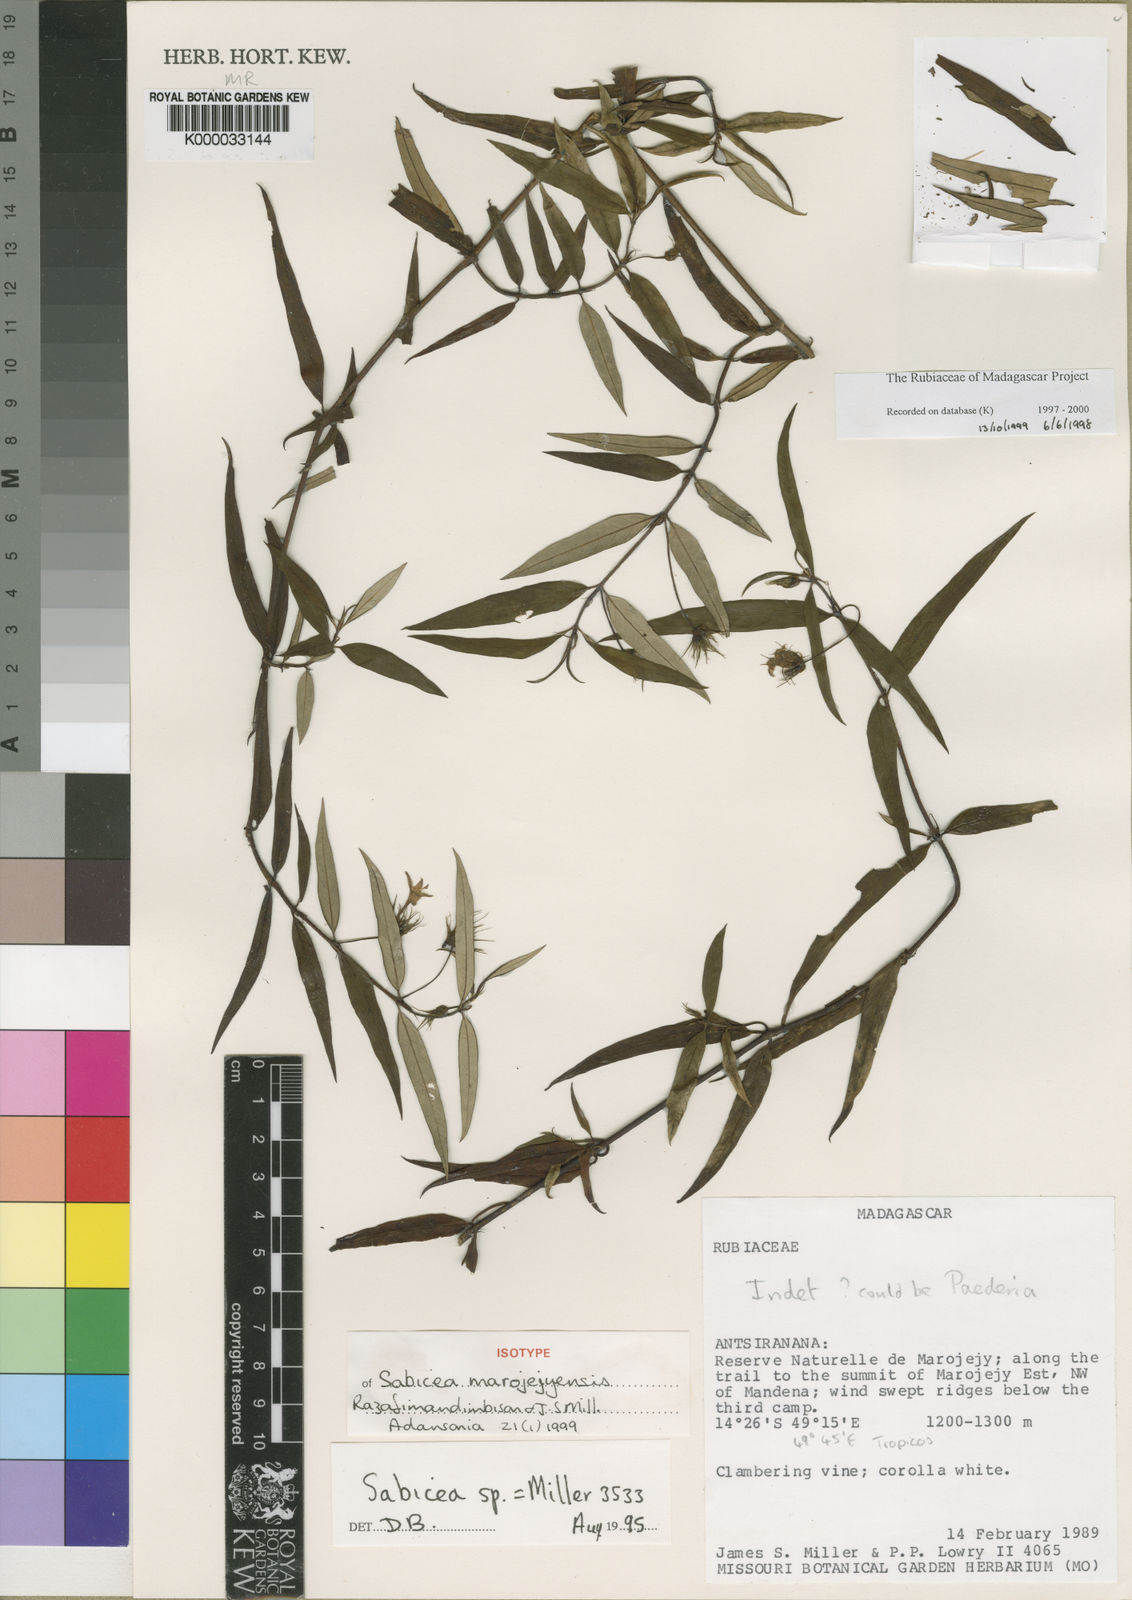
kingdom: Plantae
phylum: Tracheophyta
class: Magnoliopsida
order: Gentianales
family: Rubiaceae
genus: Sabicea
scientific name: Sabicea marojejyensis
